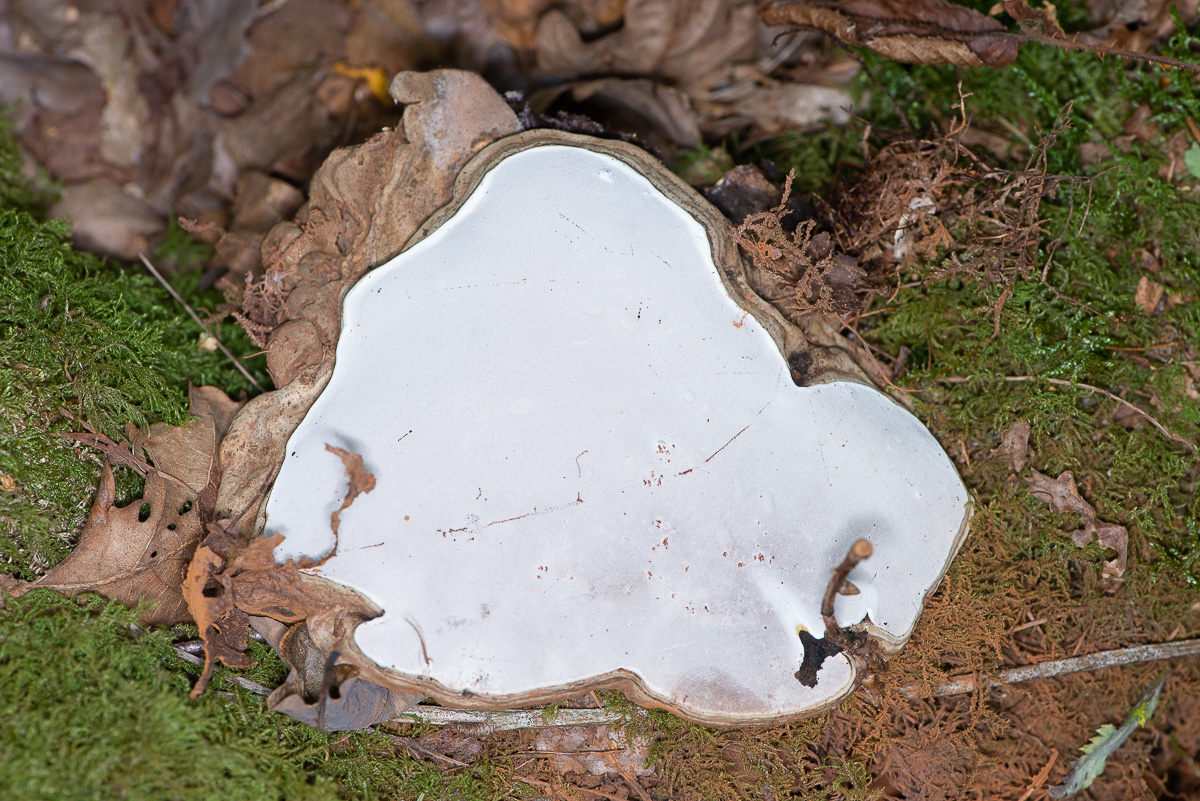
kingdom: Fungi
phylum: Basidiomycota
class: Agaricomycetes
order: Polyporales
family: Polyporaceae
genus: Ganoderma
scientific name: Ganoderma applanatum
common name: flad lakporesvamp
